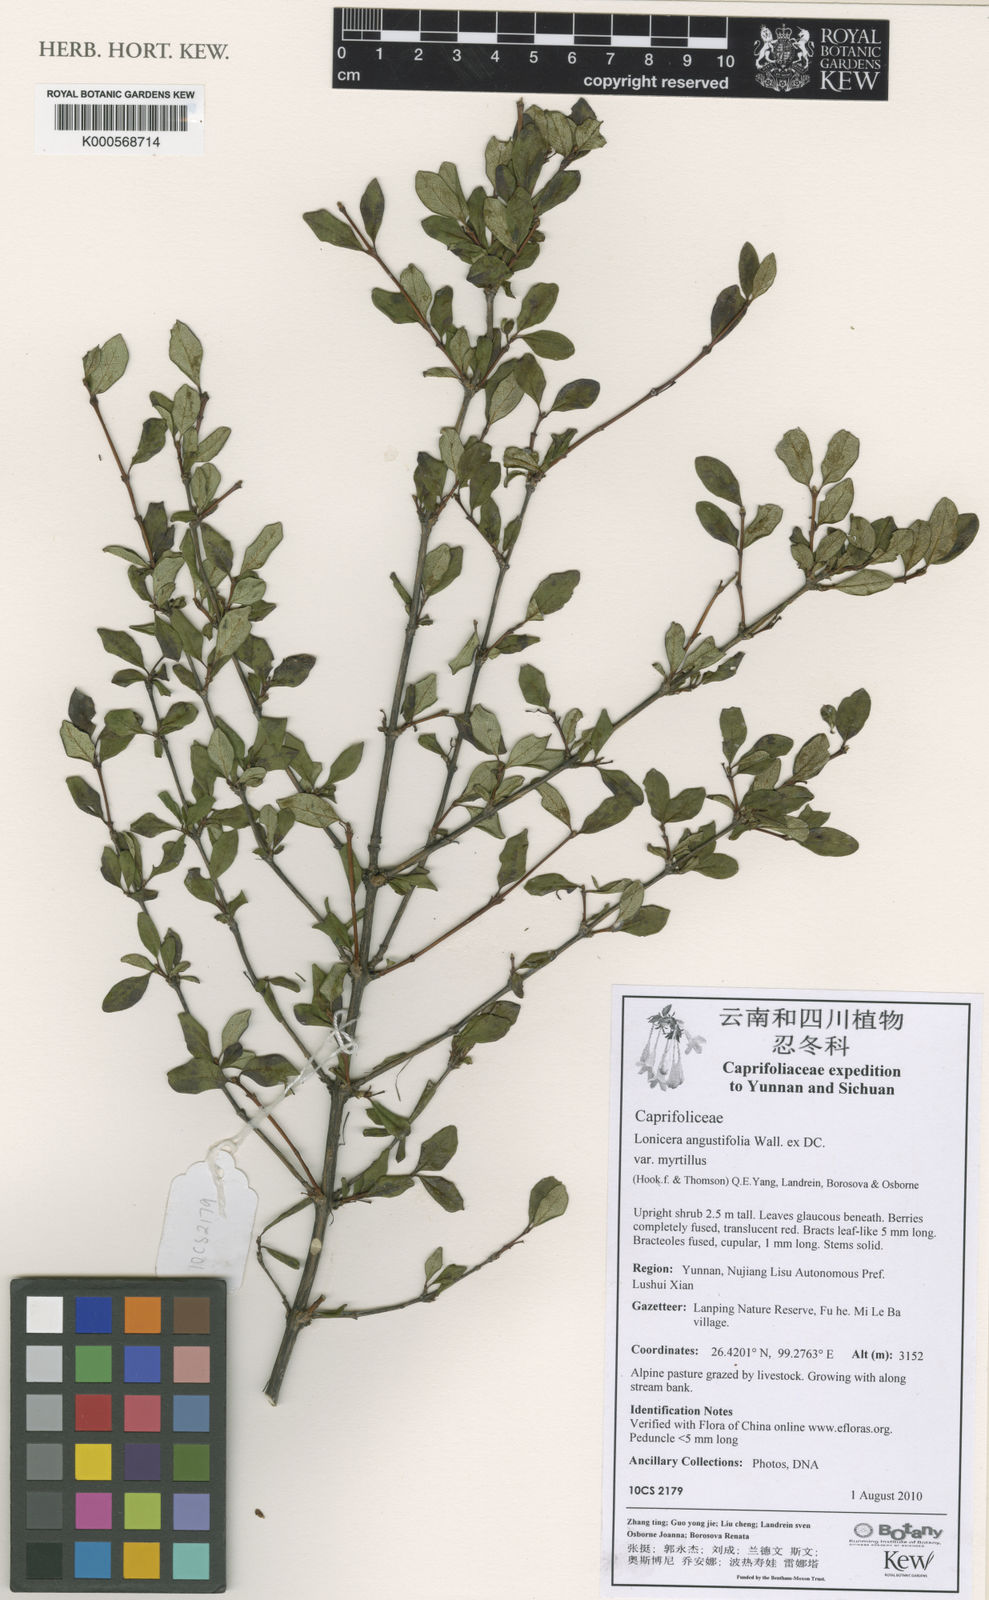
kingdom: Plantae
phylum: Tracheophyta
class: Magnoliopsida
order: Dipsacales
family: Caprifoliaceae
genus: Lonicera
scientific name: Lonicera angustifolia
